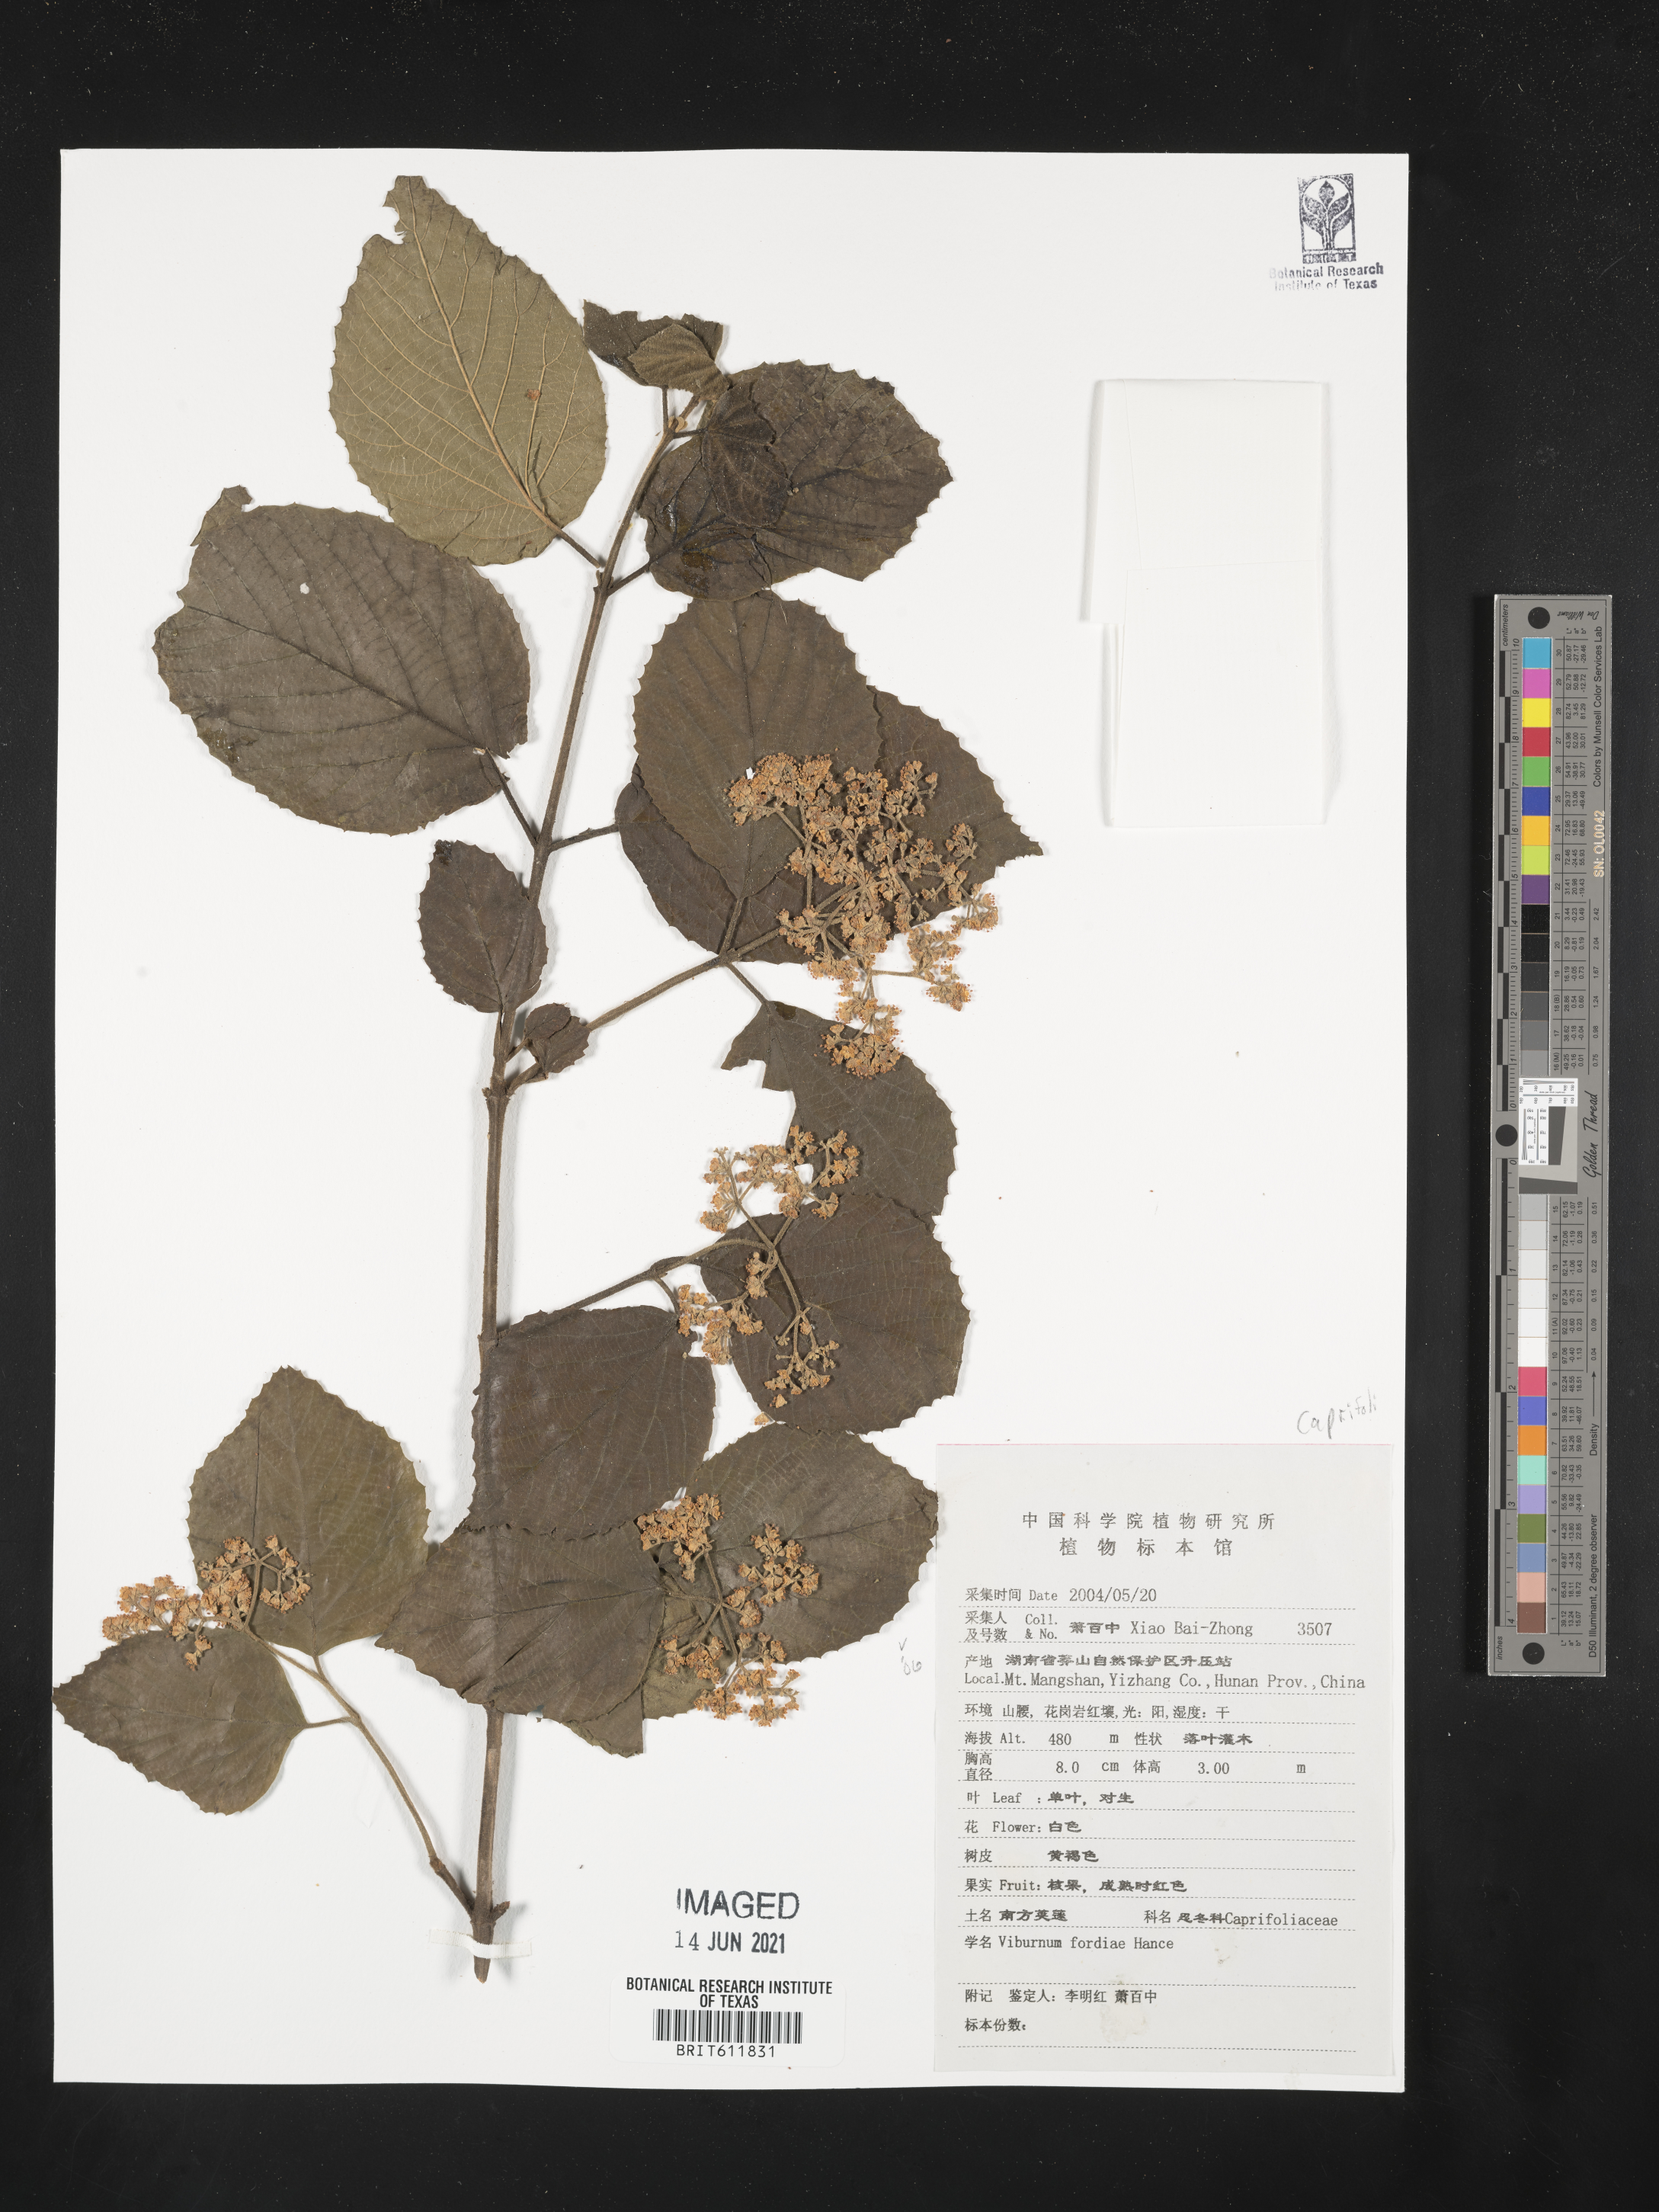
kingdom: Plantae
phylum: Tracheophyta
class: Magnoliopsida
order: Dipsacales
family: Viburnaceae
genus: Viburnum
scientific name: Viburnum fordiae
